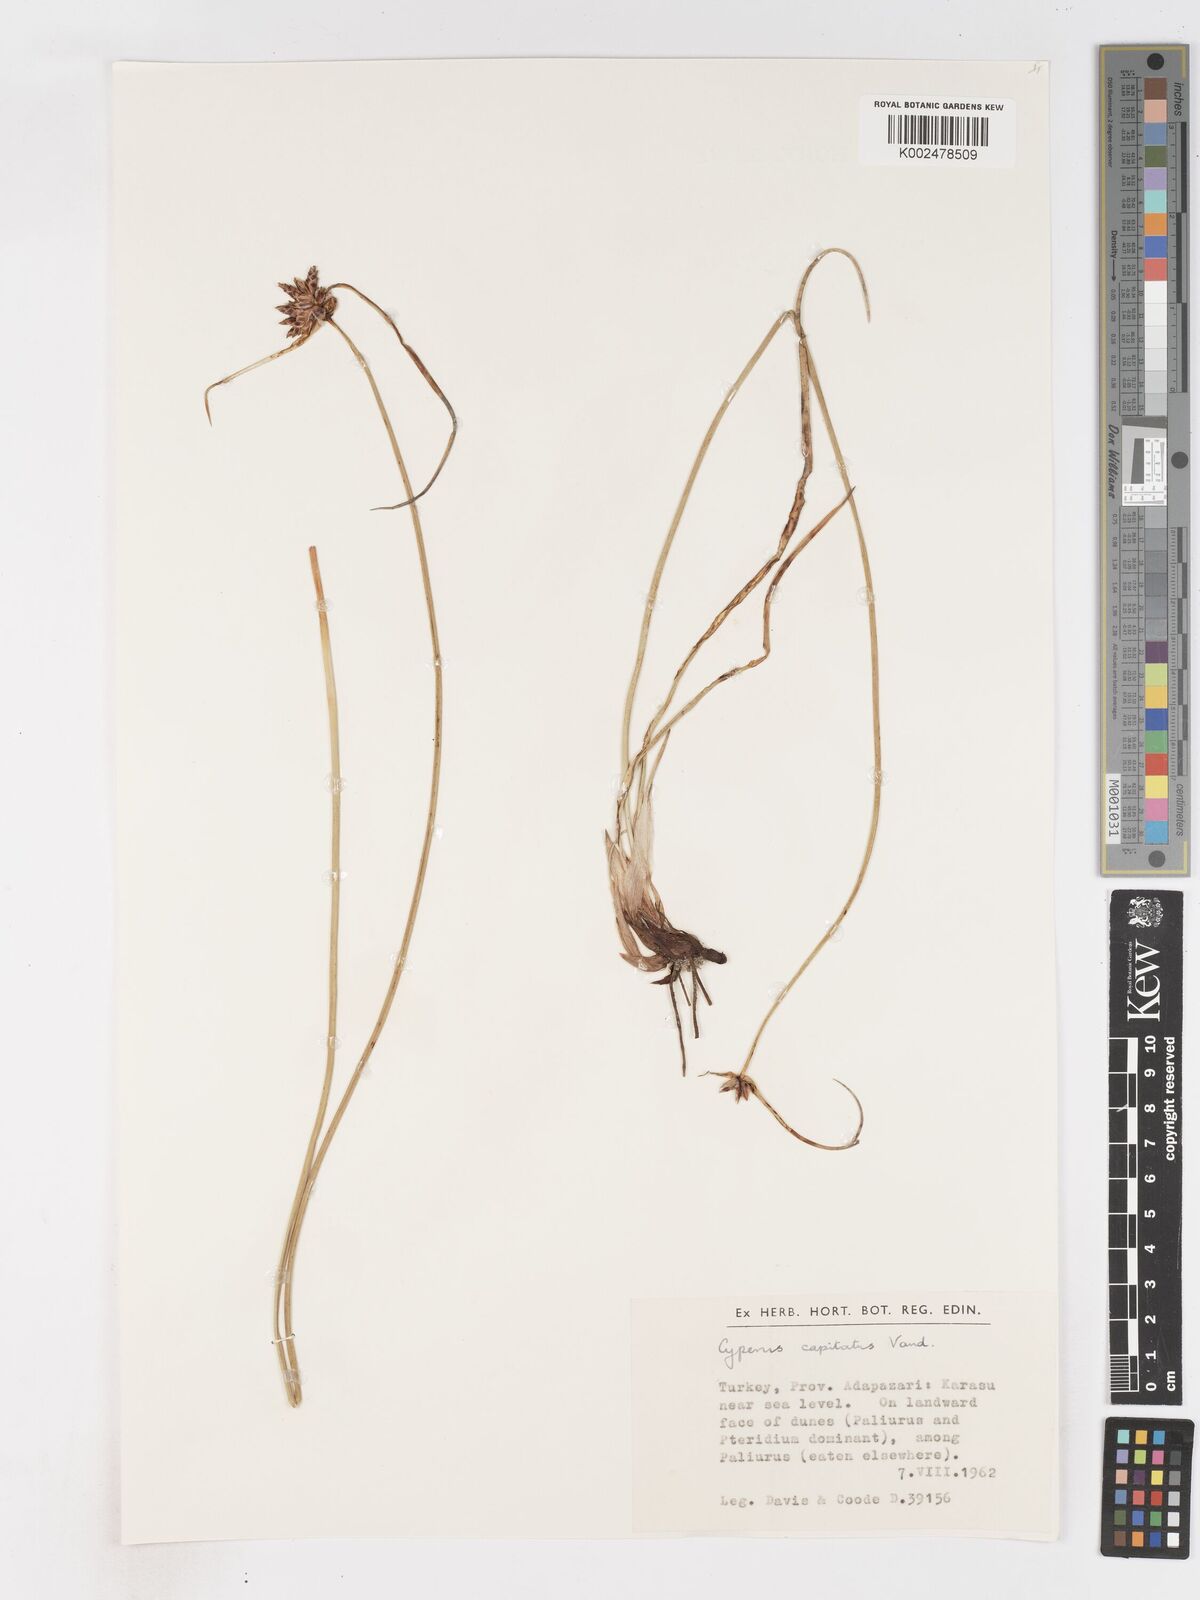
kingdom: Plantae
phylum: Tracheophyta
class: Liliopsida
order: Poales
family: Cyperaceae
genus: Cyperus
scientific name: Cyperus capitatus
